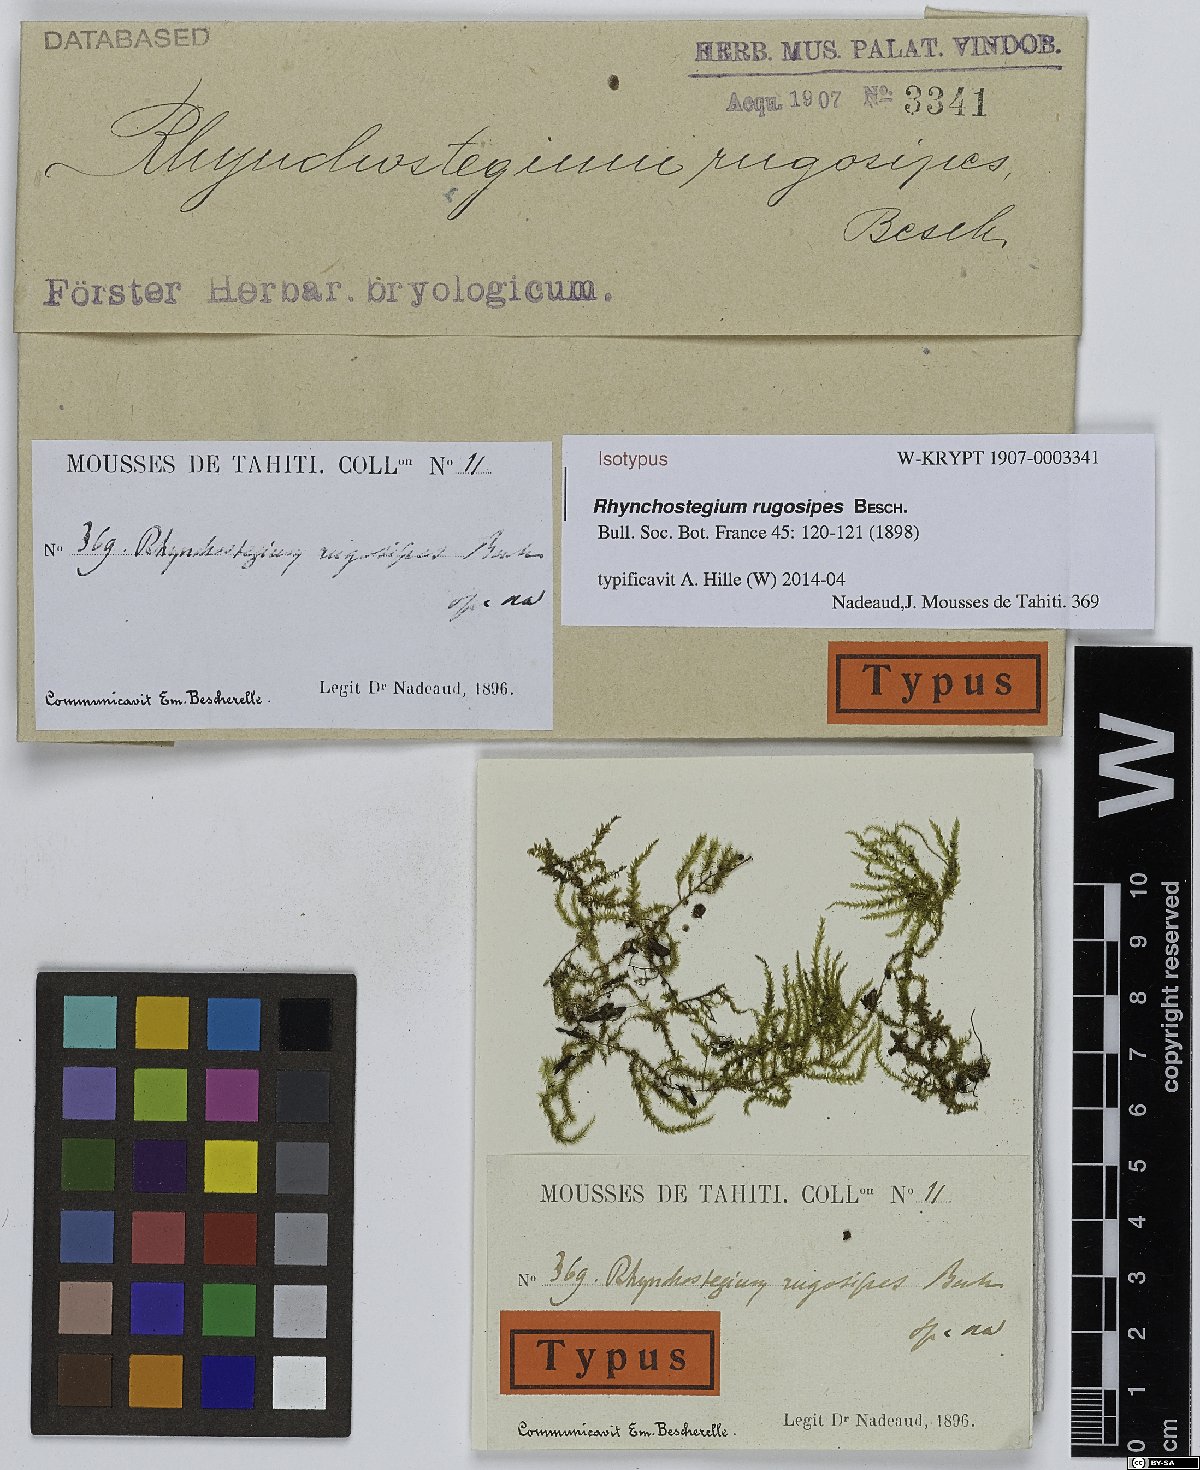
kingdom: Plantae
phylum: Bryophyta
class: Bryopsida
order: Hypnales
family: Brachytheciaceae
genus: Oxyrrhynchium
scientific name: Oxyrrhynchium rugosipes
